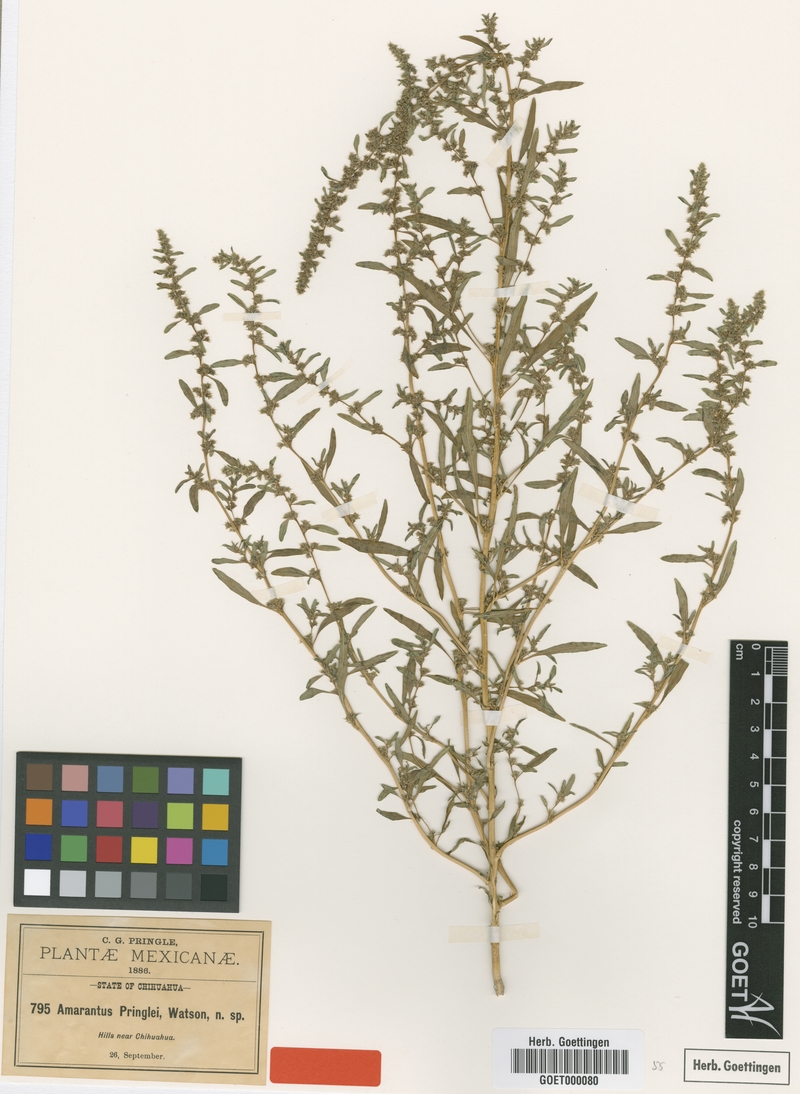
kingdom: Plantae
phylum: Tracheophyta
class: Magnoliopsida
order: Caryophyllales
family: Amaranthaceae
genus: Amaranthus
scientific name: Amaranthus torreyi
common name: Bigelow's amaranth
